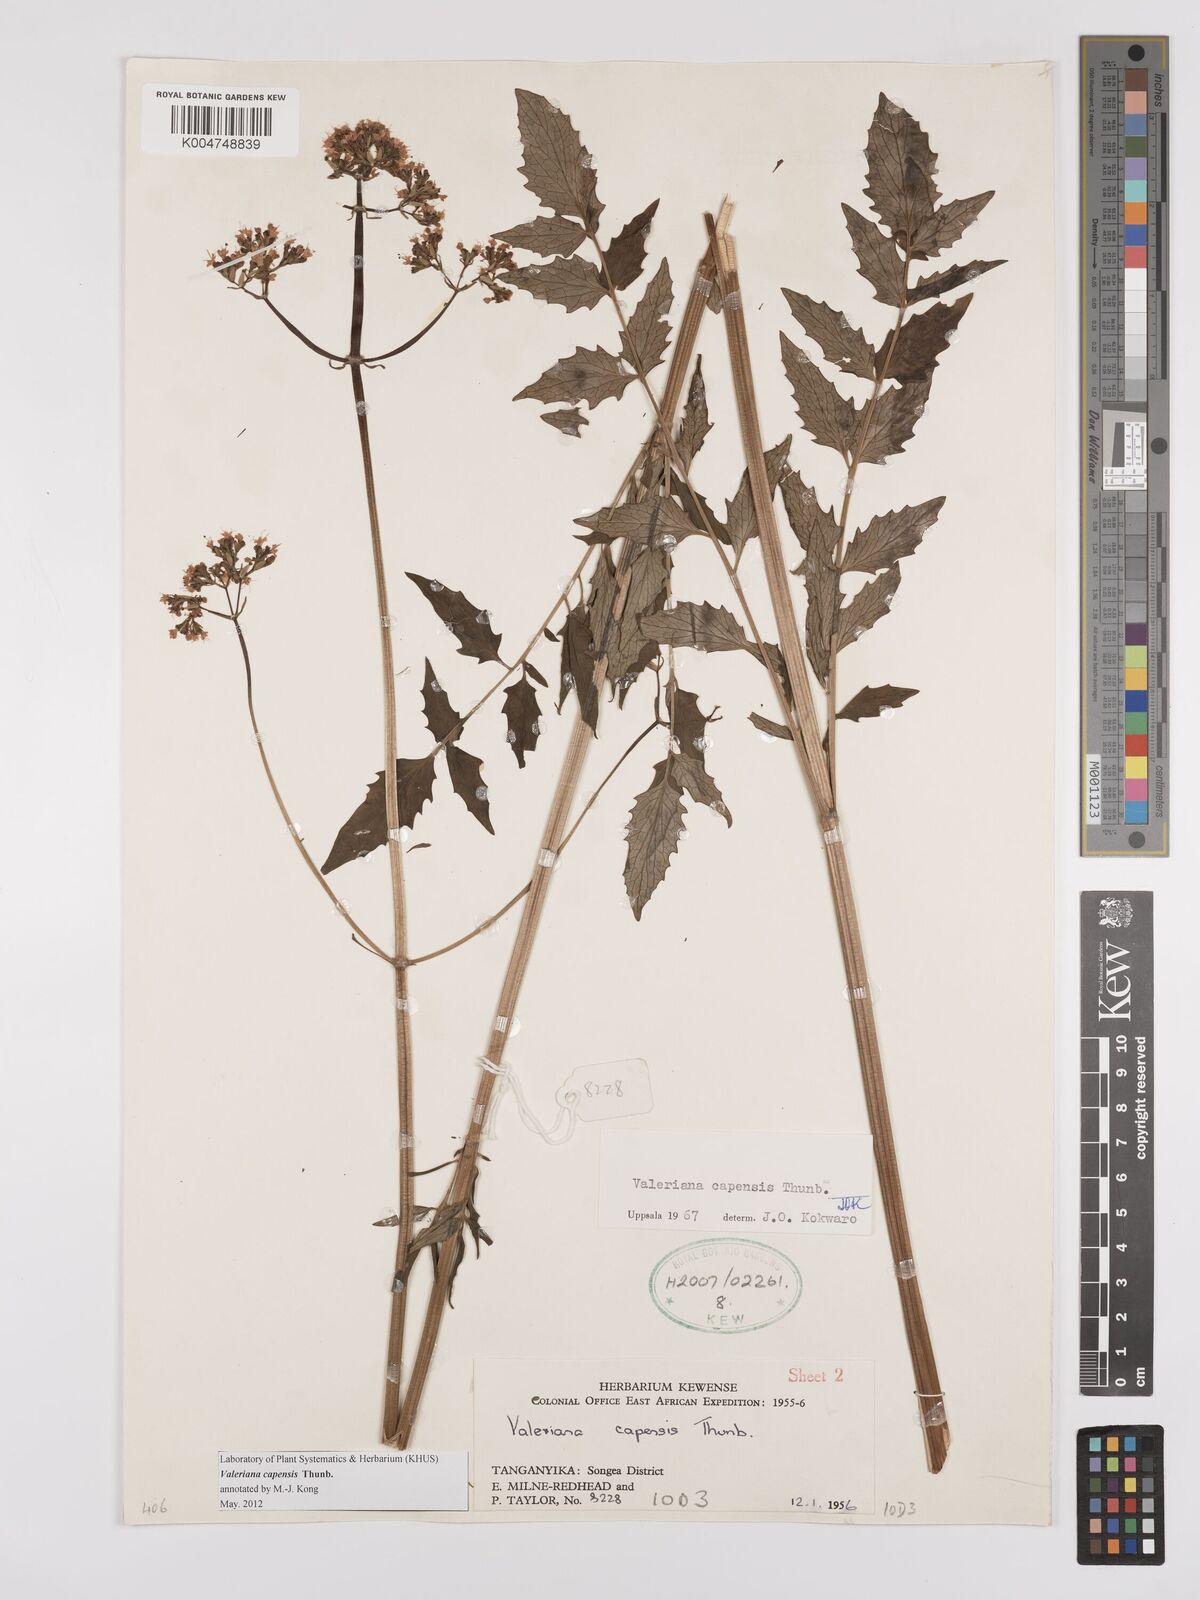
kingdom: Plantae
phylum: Tracheophyta
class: Magnoliopsida
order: Dipsacales
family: Caprifoliaceae
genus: Valeriana
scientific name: Valeriana capensis
